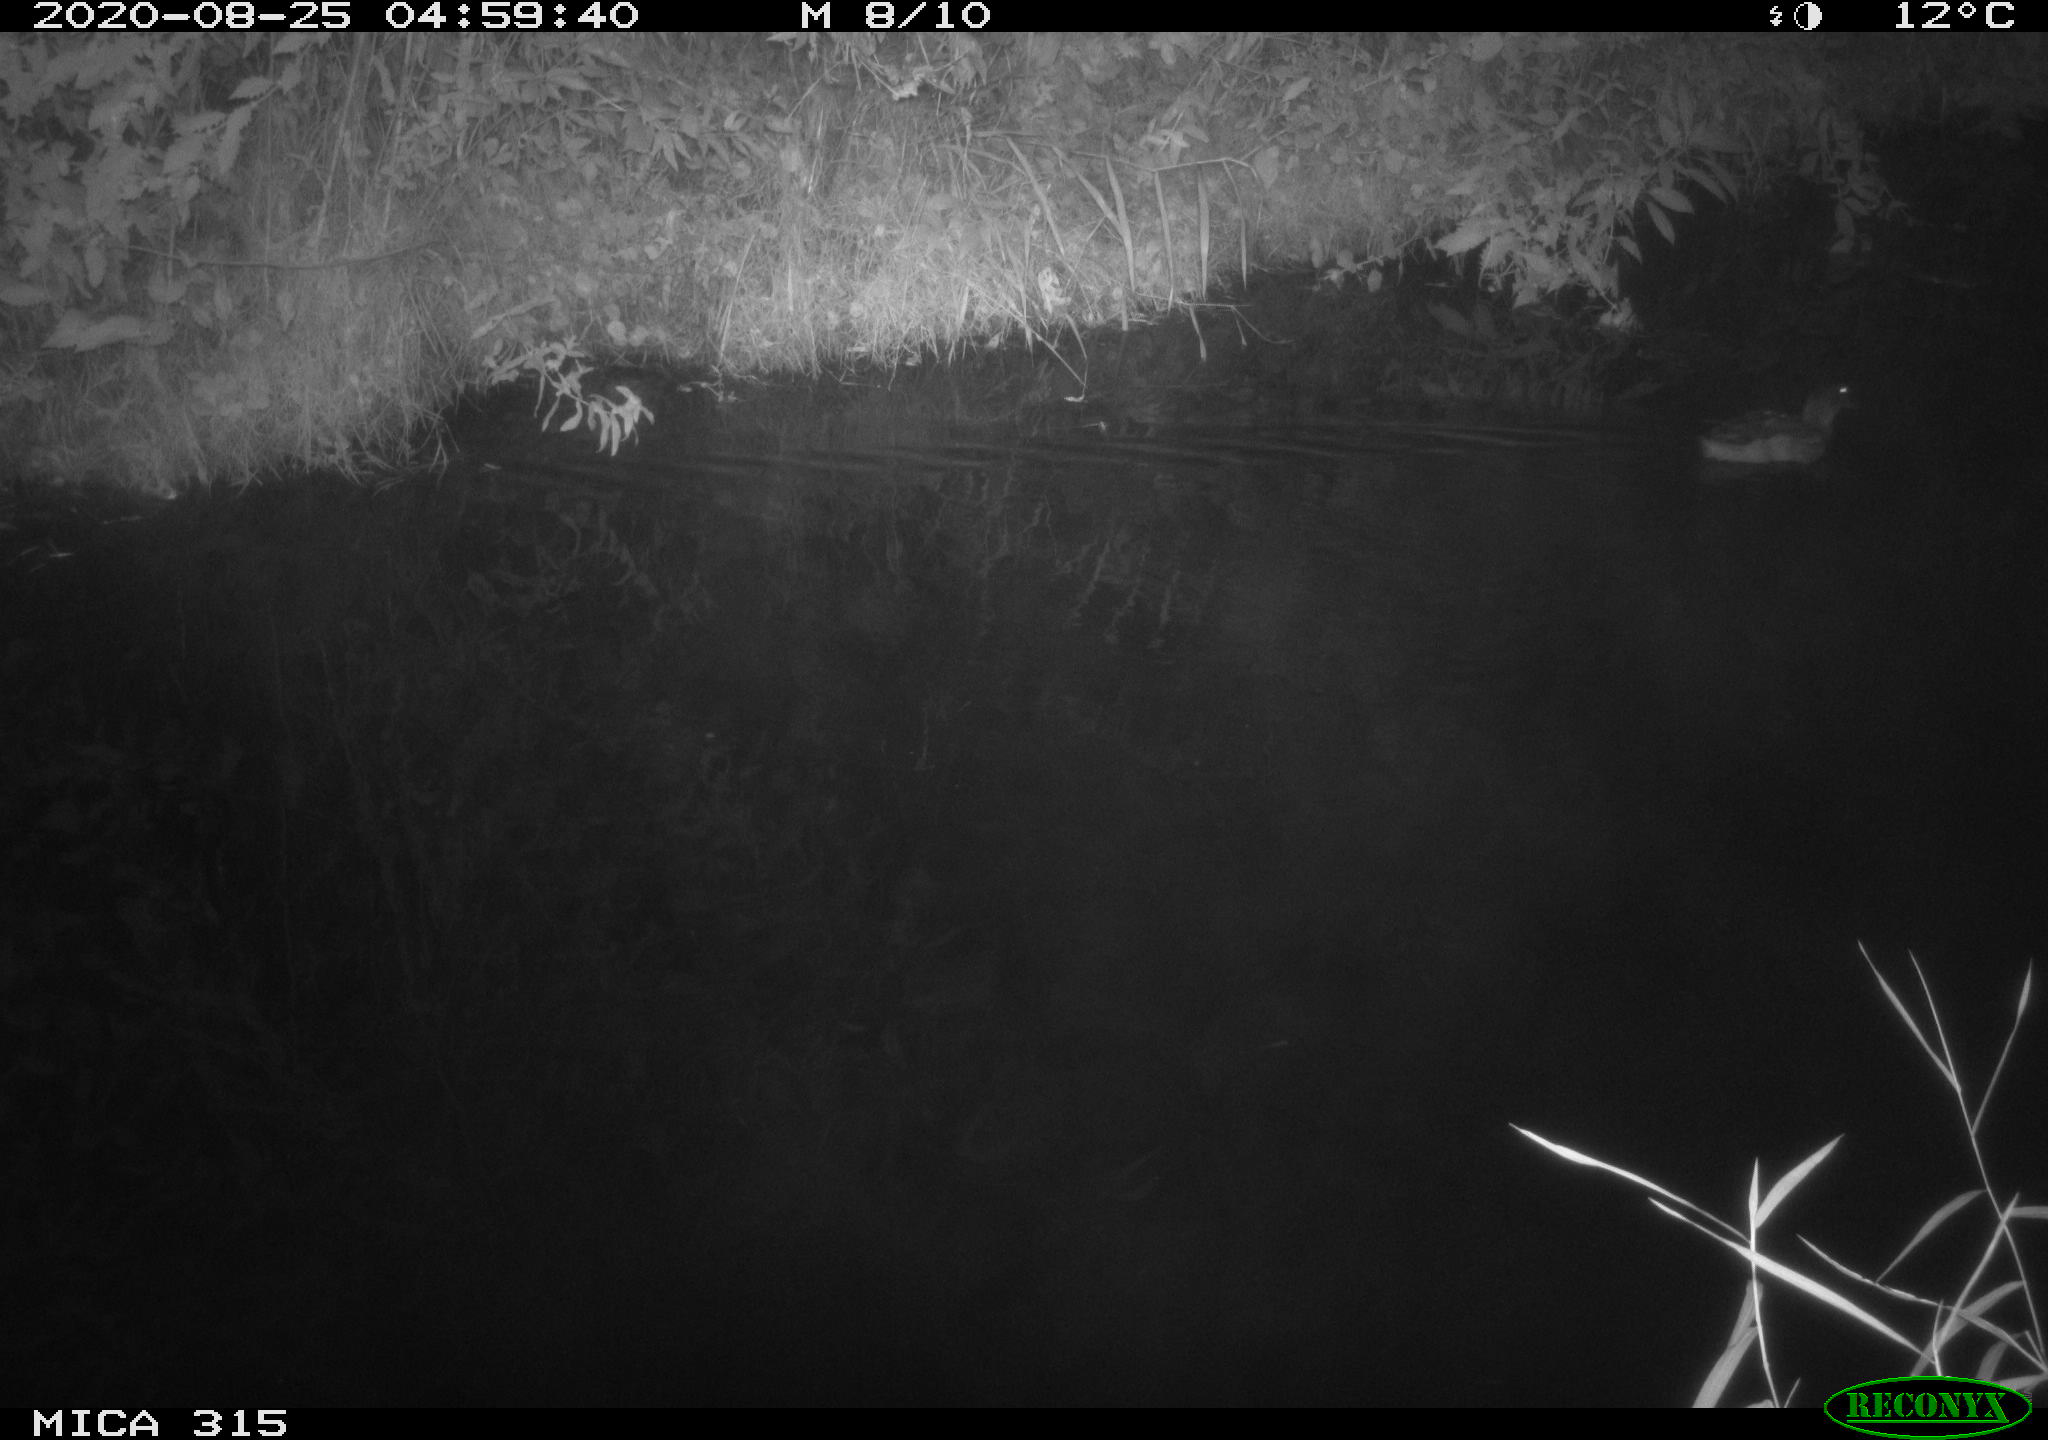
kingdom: Animalia
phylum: Chordata
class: Aves
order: Anseriformes
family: Anatidae
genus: Anas
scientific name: Anas platyrhynchos
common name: Mallard
